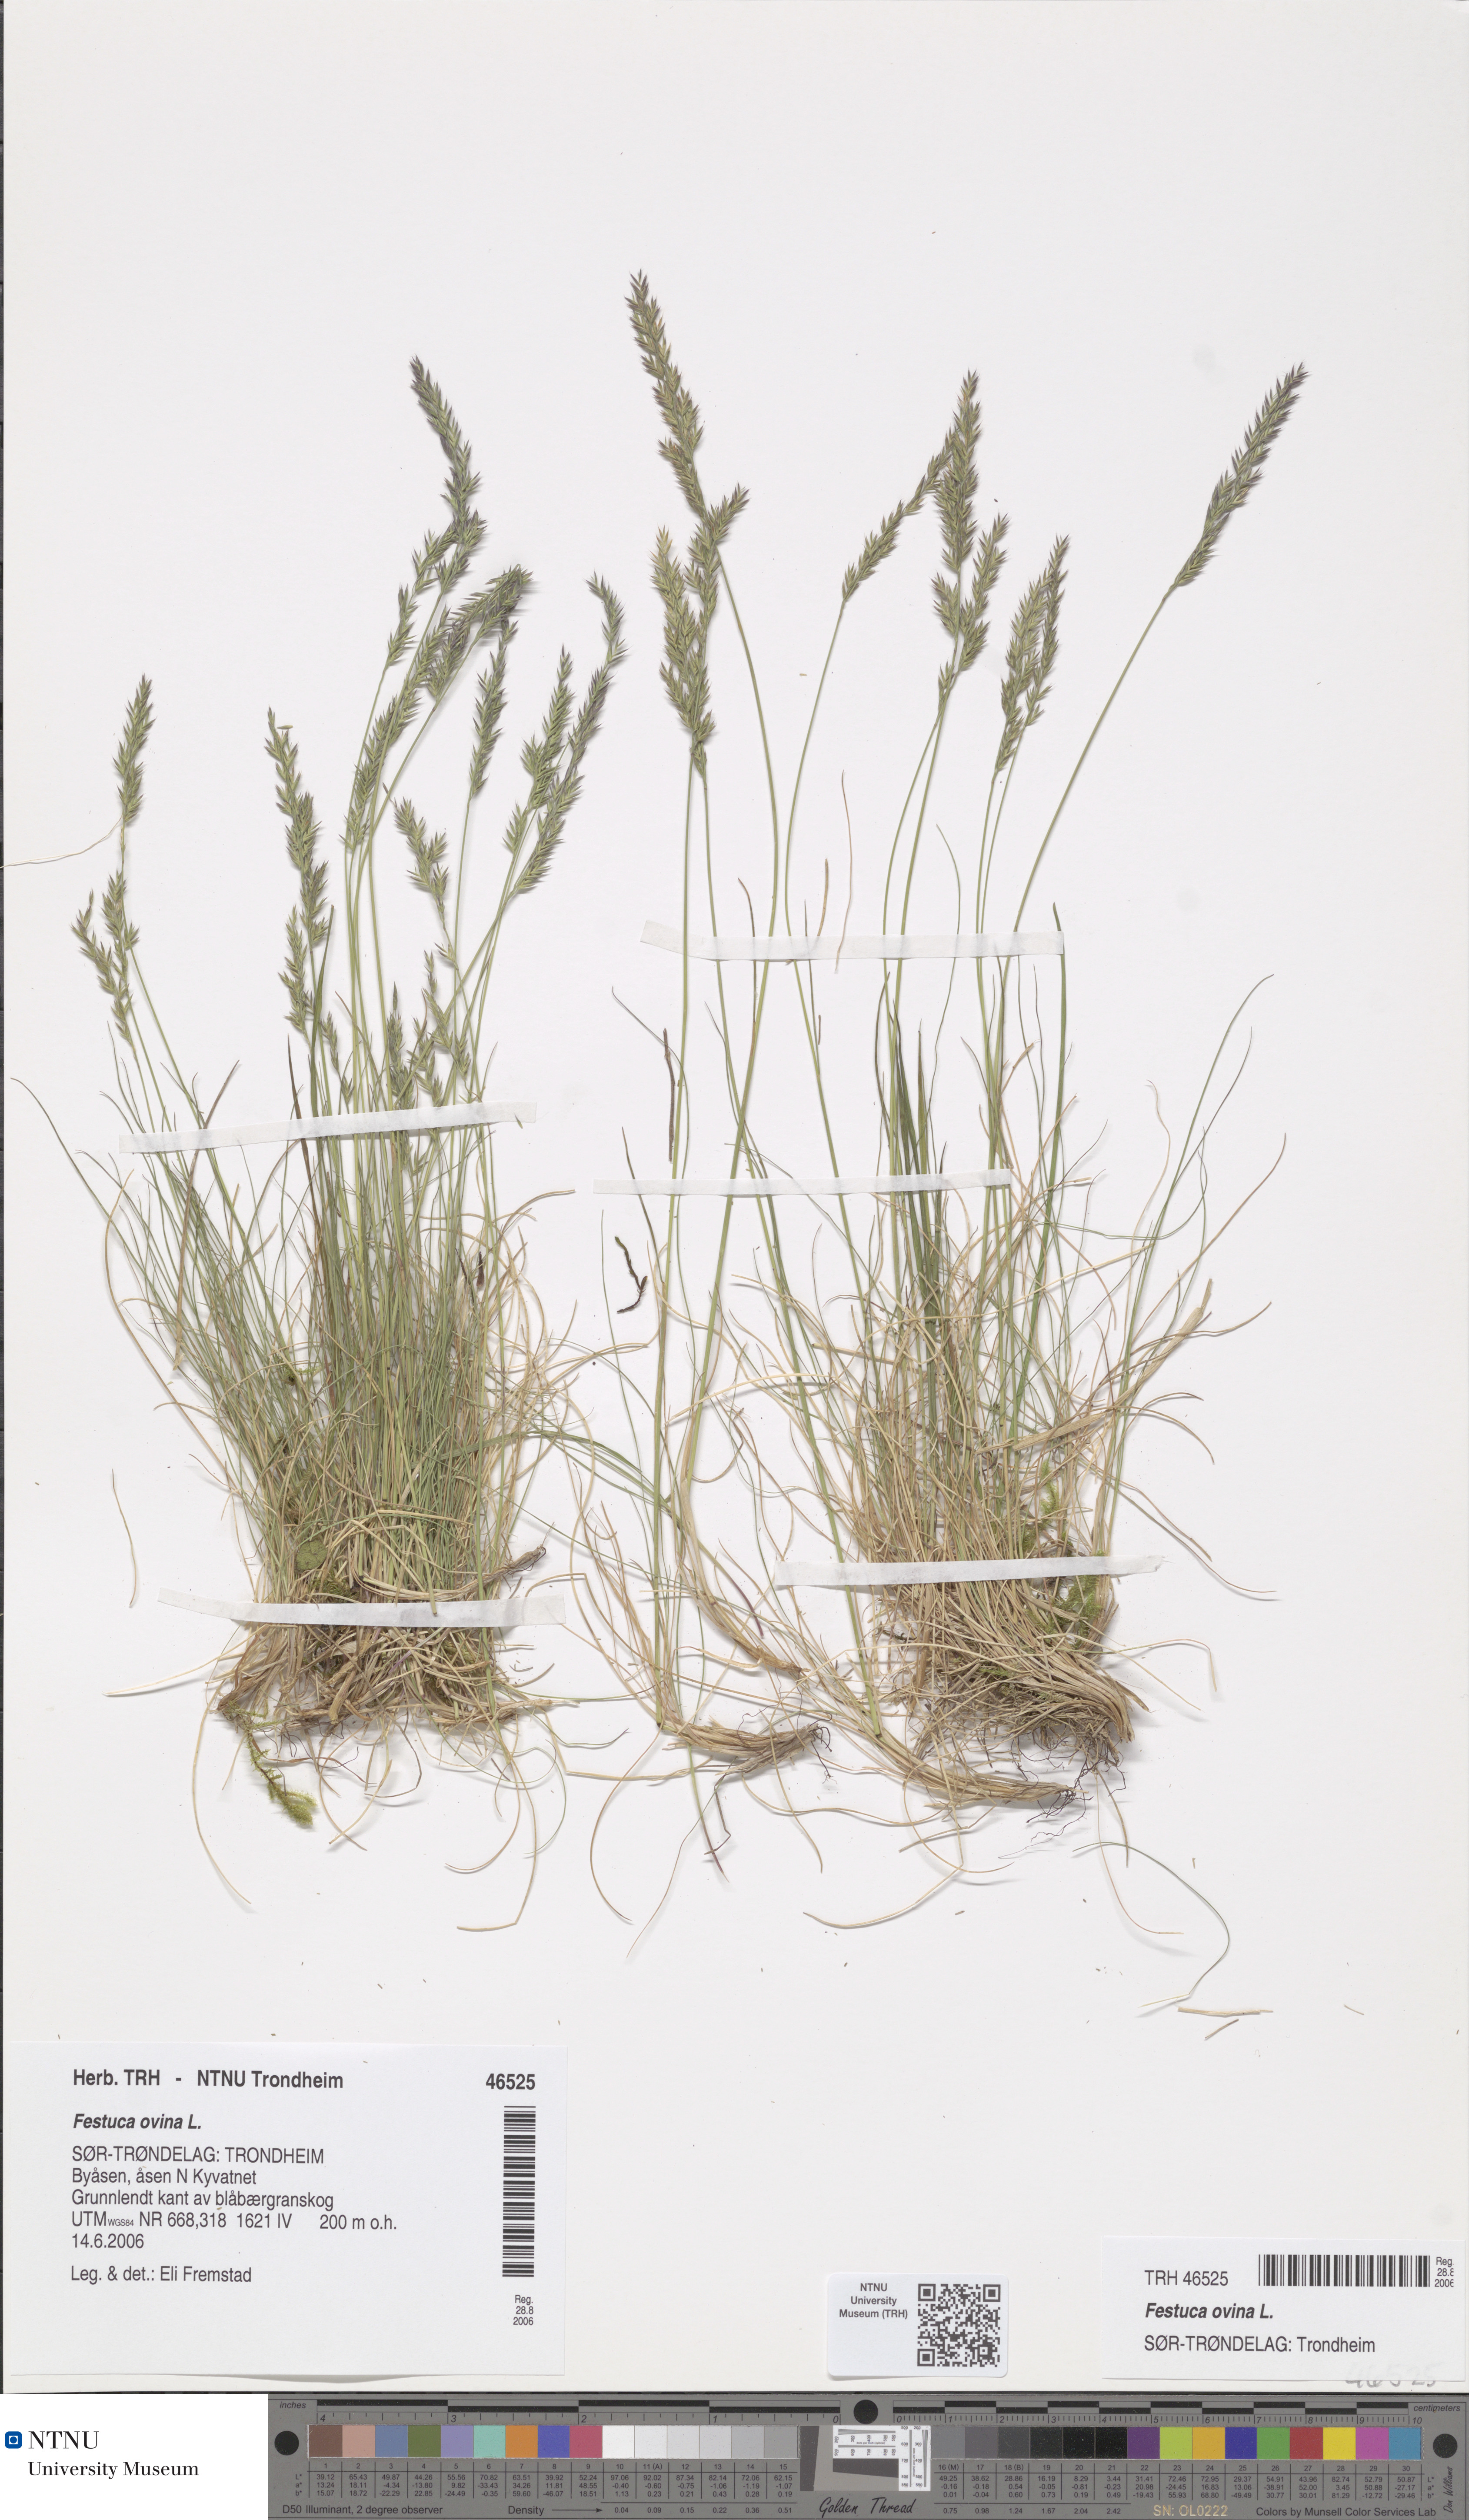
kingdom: Plantae
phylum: Tracheophyta
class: Liliopsida
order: Poales
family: Poaceae
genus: Festuca
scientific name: Festuca ovina
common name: Sheep fescue
